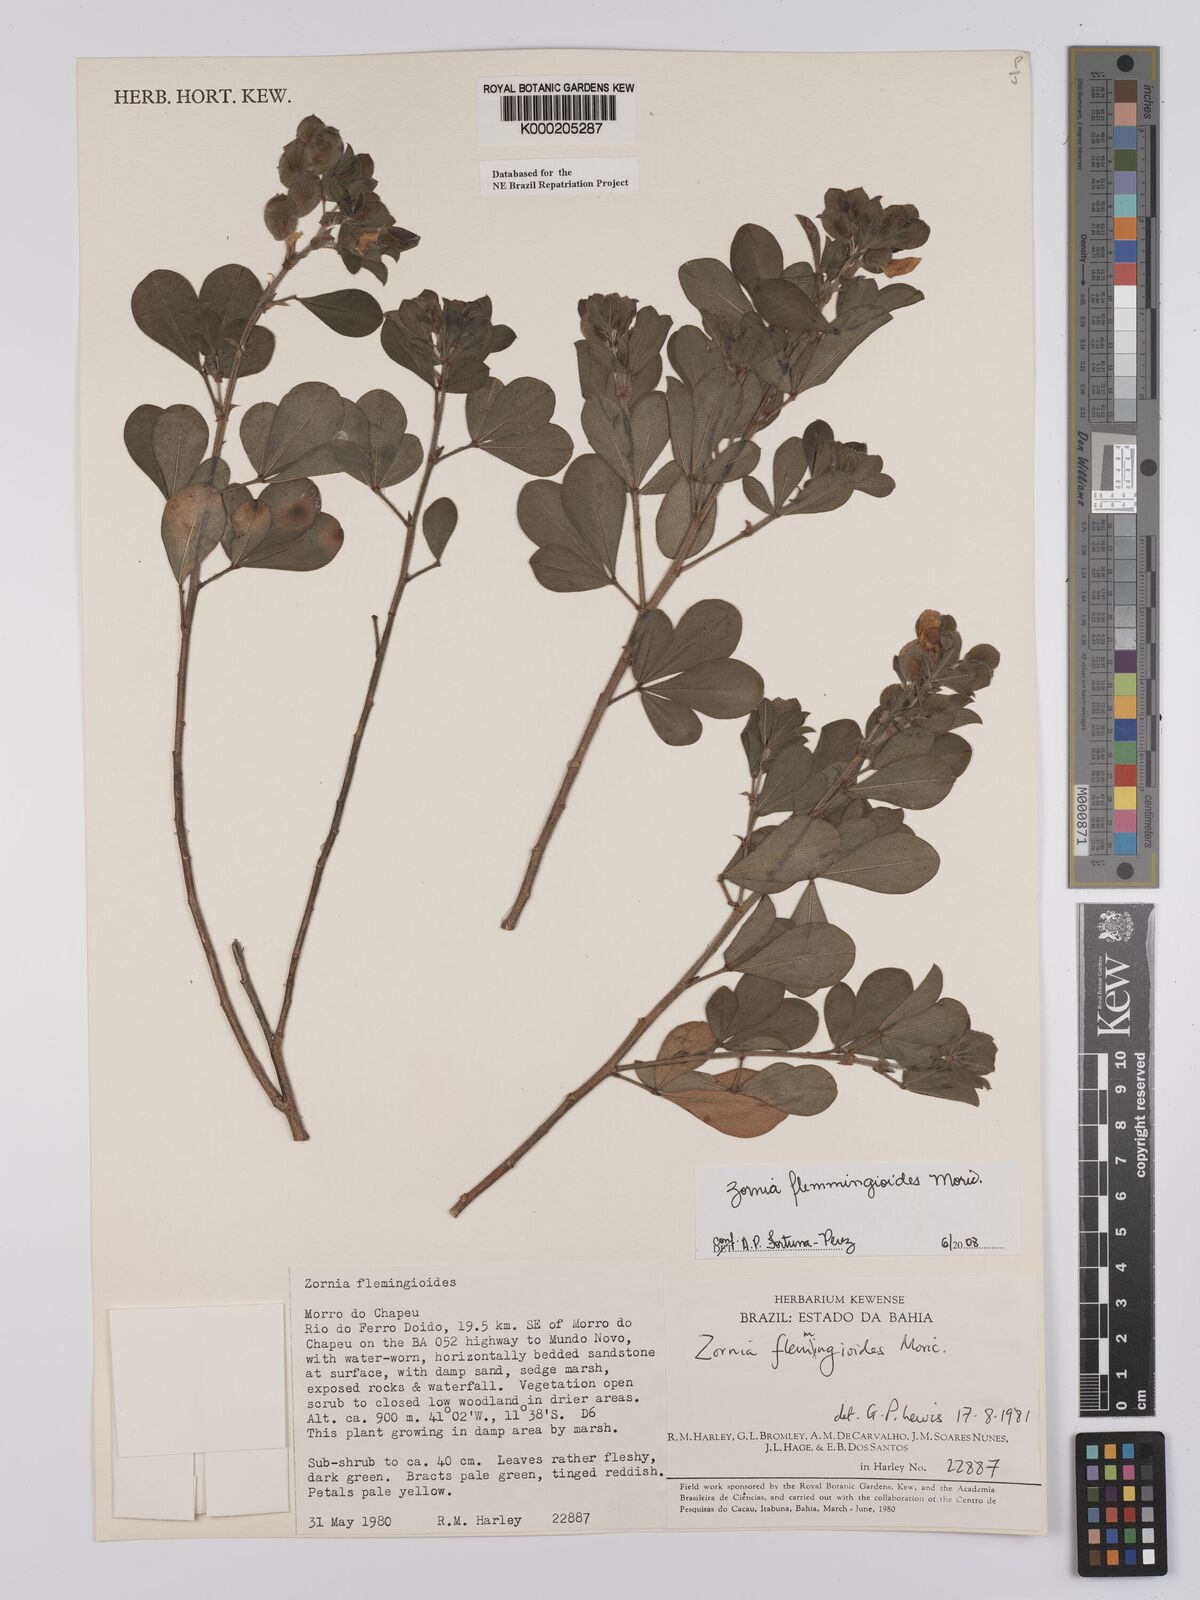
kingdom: Plantae
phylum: Tracheophyta
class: Magnoliopsida
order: Fabales
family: Fabaceae
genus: Zornia
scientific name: Zornia flemmingioides
